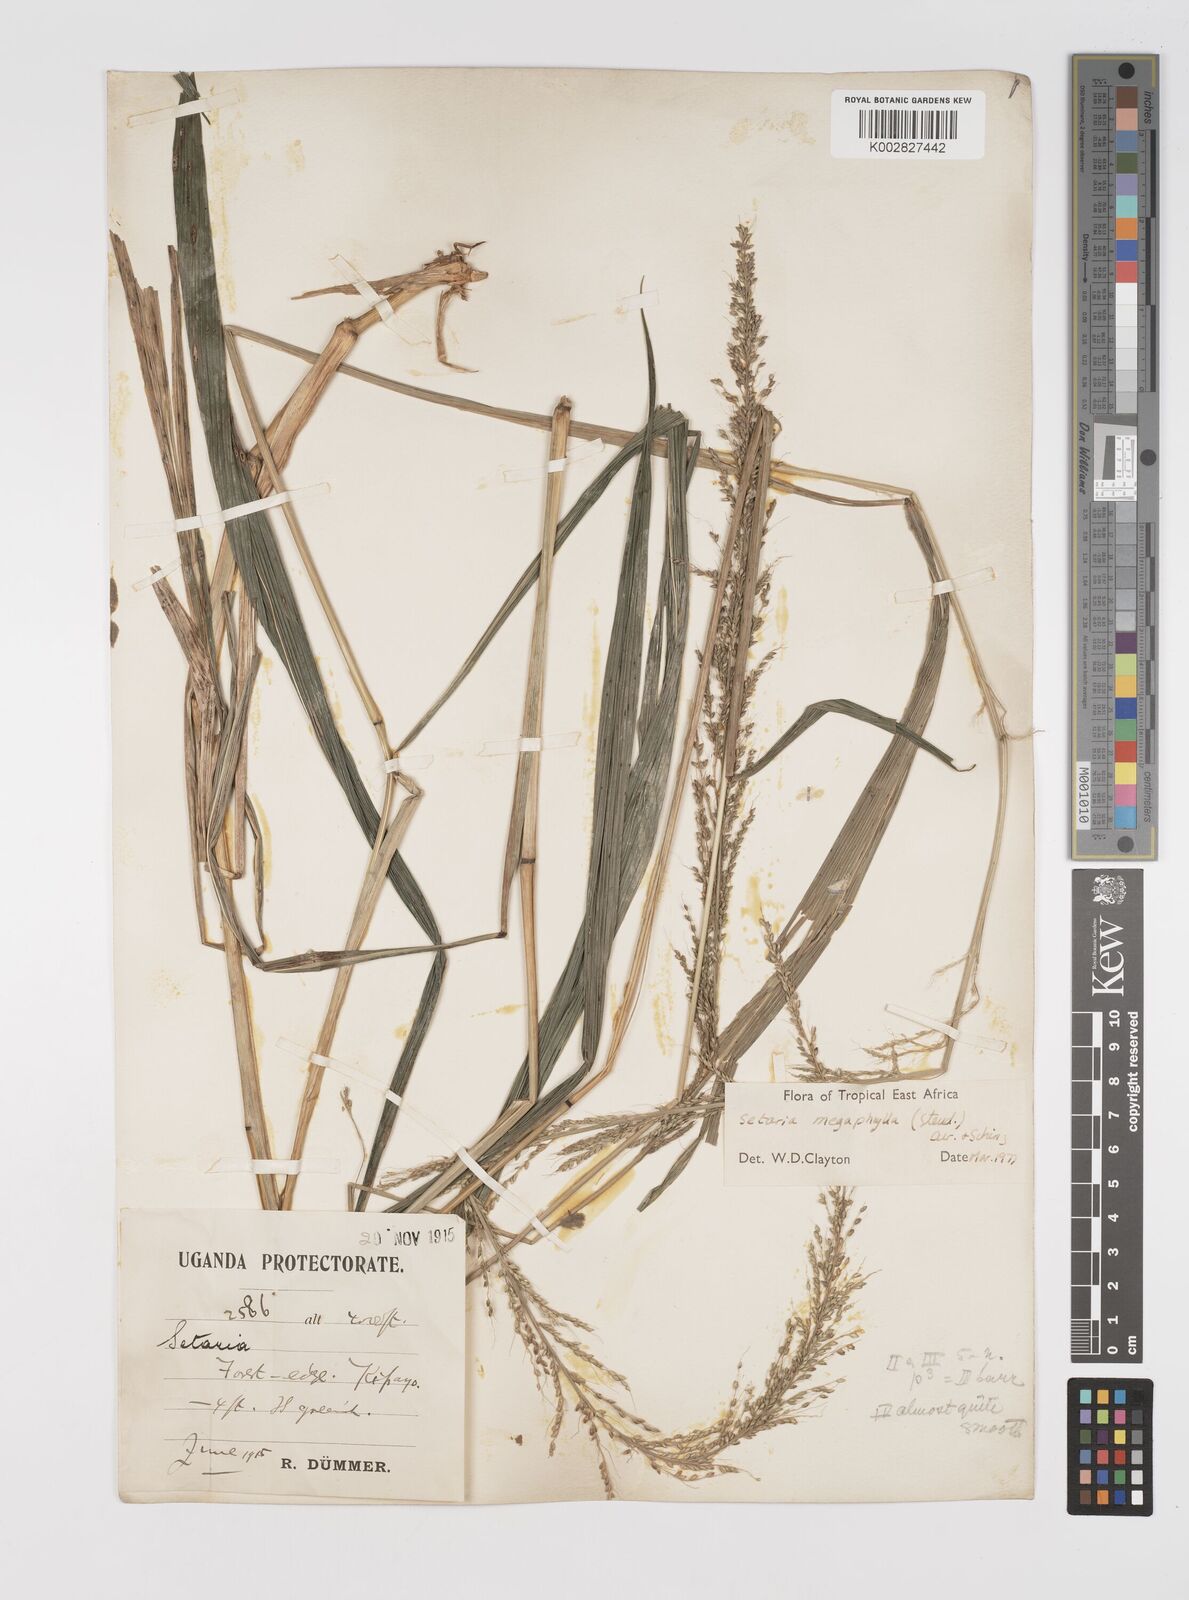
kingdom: Plantae
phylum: Tracheophyta
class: Liliopsida
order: Poales
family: Poaceae
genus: Setaria
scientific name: Setaria megaphylla
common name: Bigleaf bristlegrass
